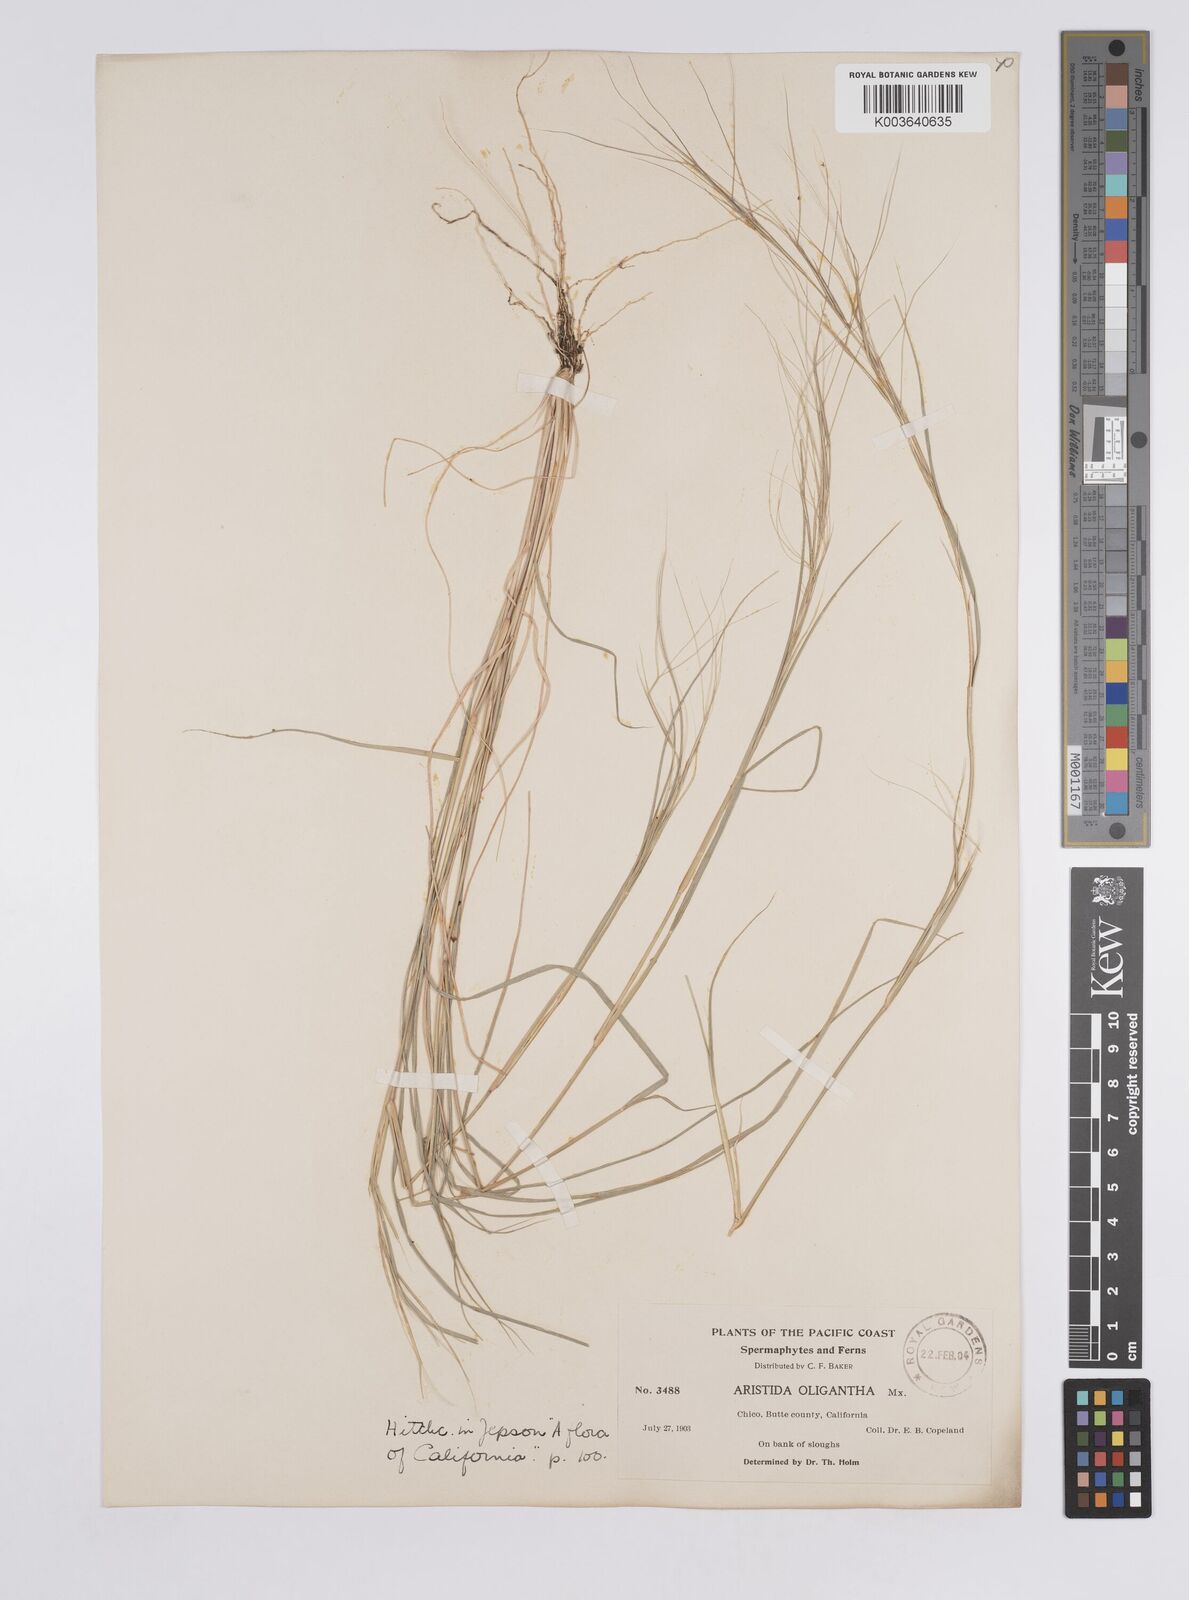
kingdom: Plantae
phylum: Tracheophyta
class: Liliopsida
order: Poales
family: Poaceae
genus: Aristida
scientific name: Aristida oligantha
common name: Few-flowered aristida
